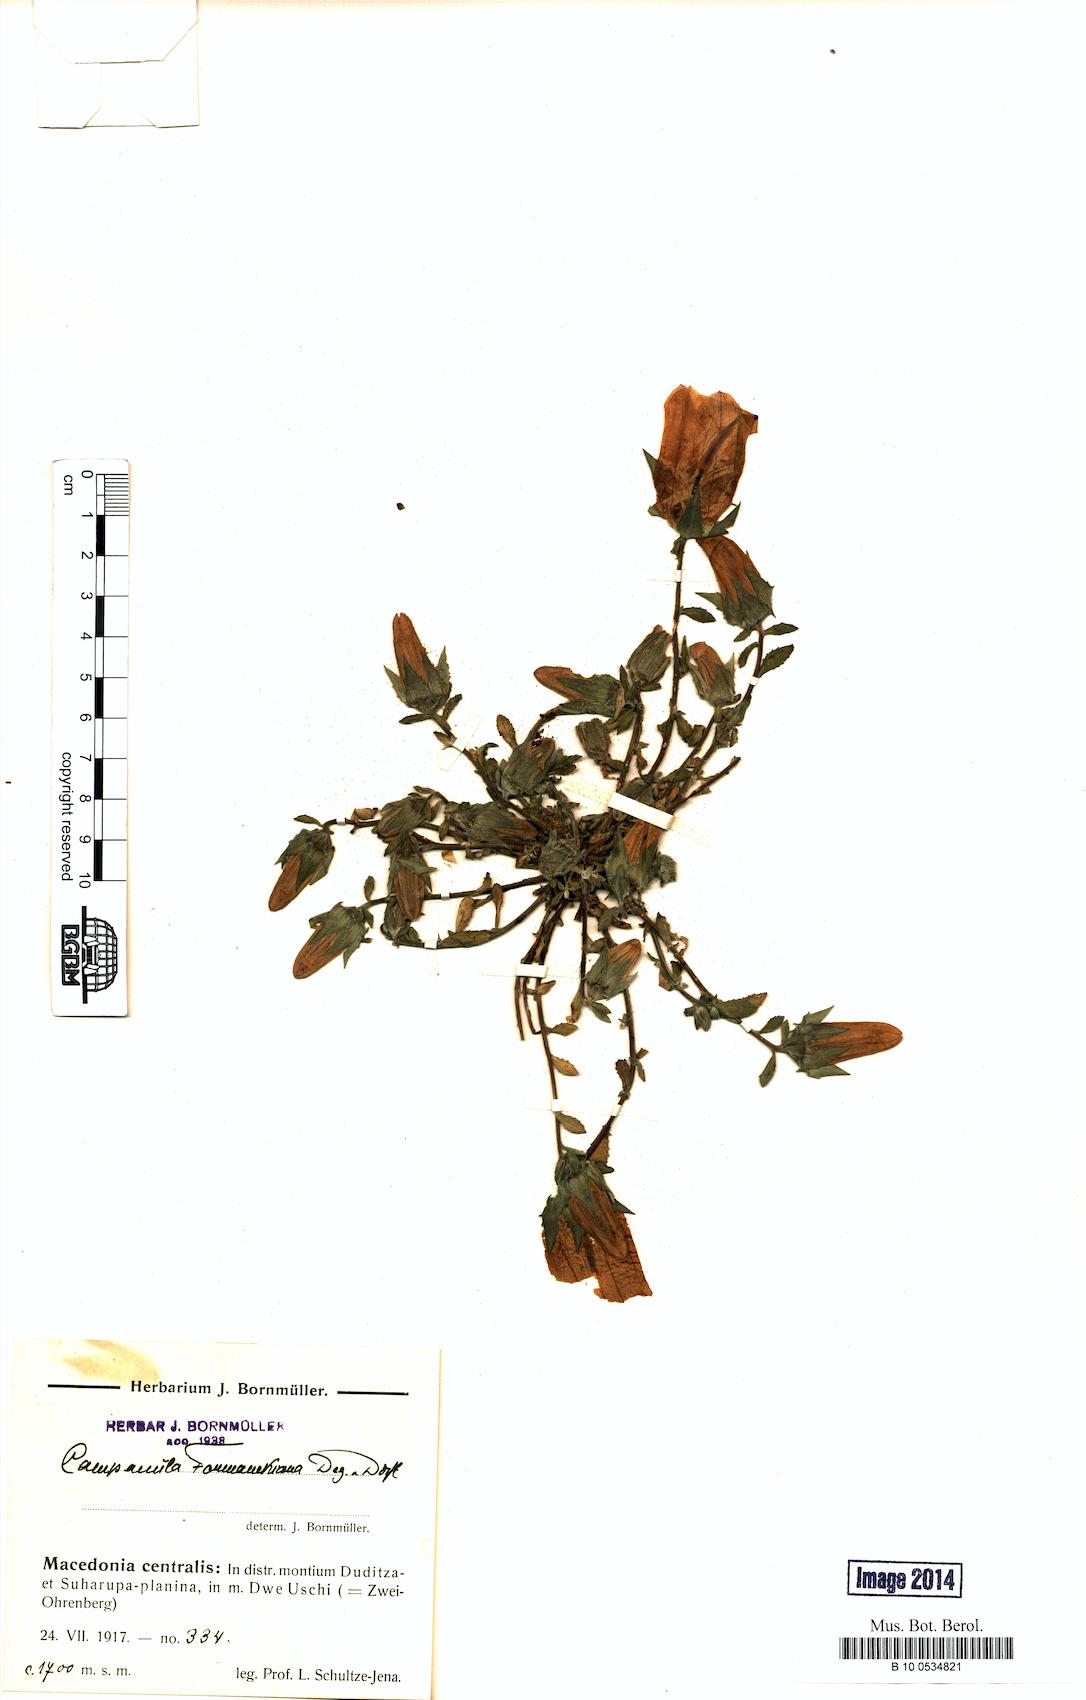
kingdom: Plantae
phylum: Tracheophyta
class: Magnoliopsida
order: Asterales
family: Campanulaceae
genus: Campanula
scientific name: Campanula formanekiana
